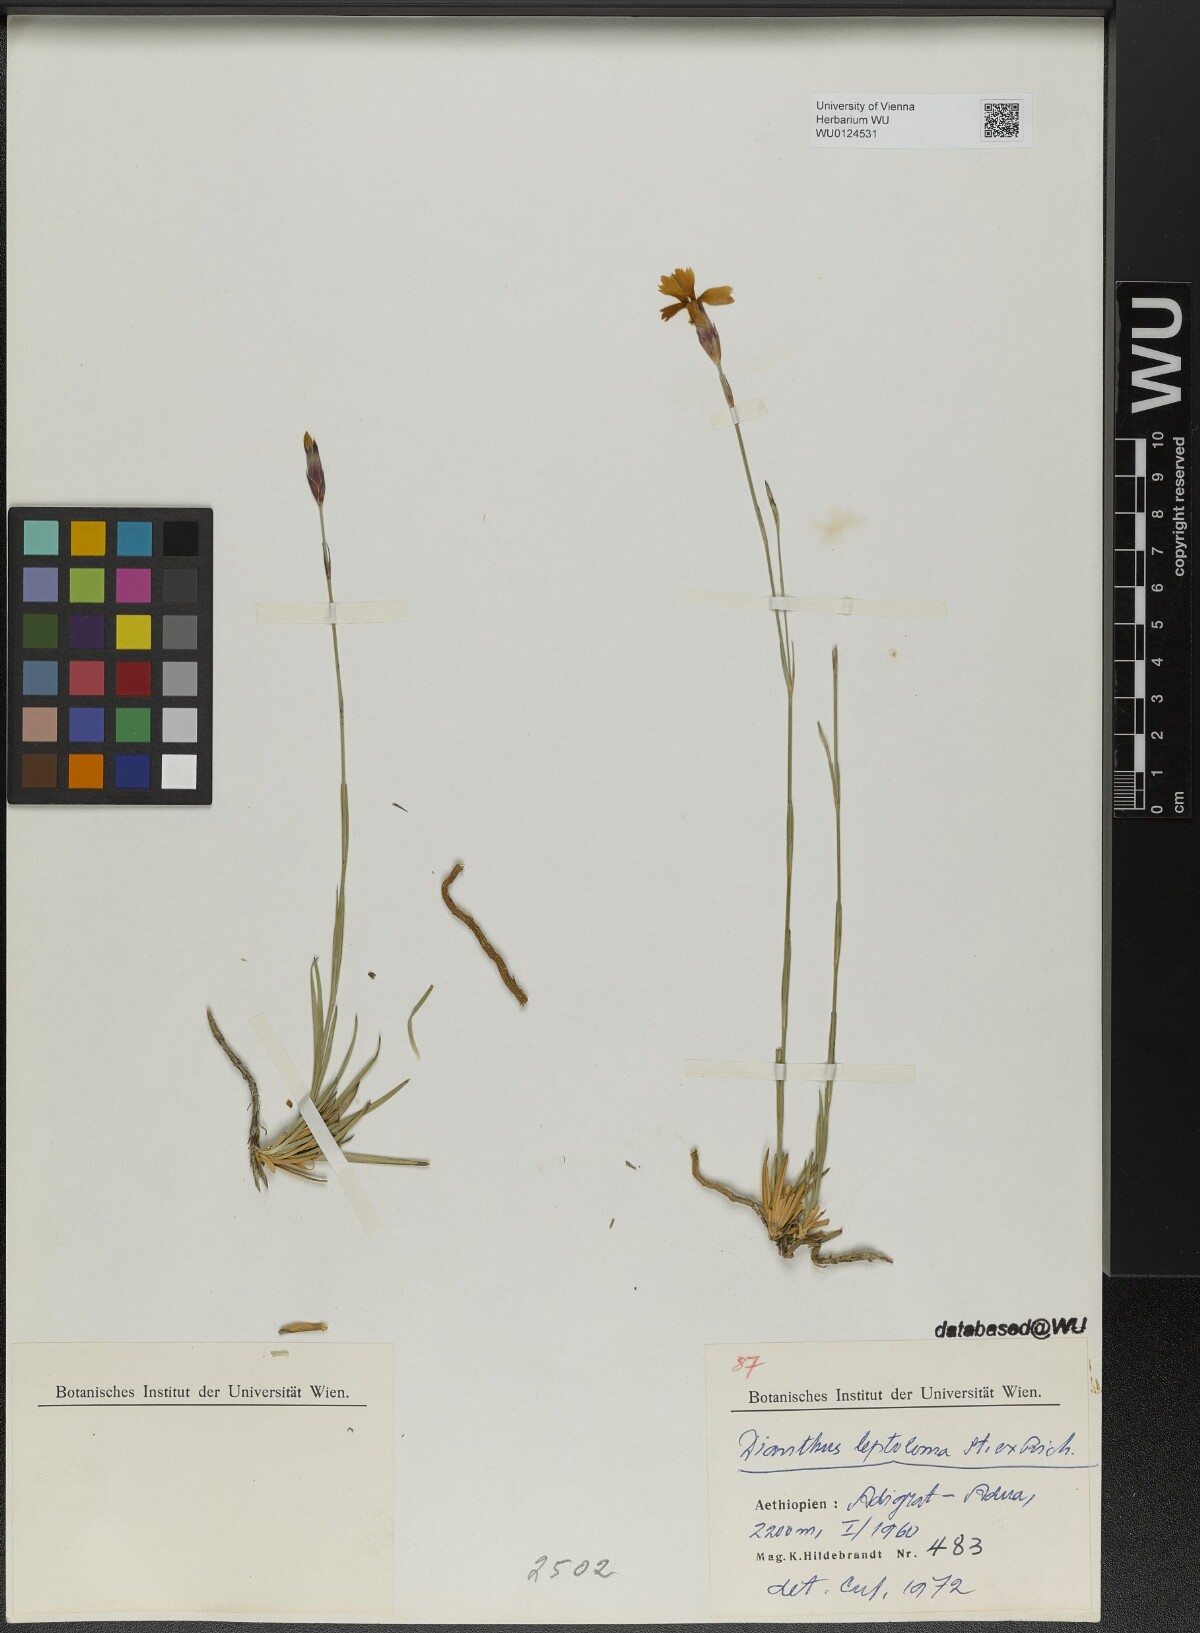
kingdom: Plantae
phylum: Tracheophyta
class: Magnoliopsida
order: Caryophyllales
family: Caryophyllaceae
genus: Dianthus
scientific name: Dianthus leptoloma
